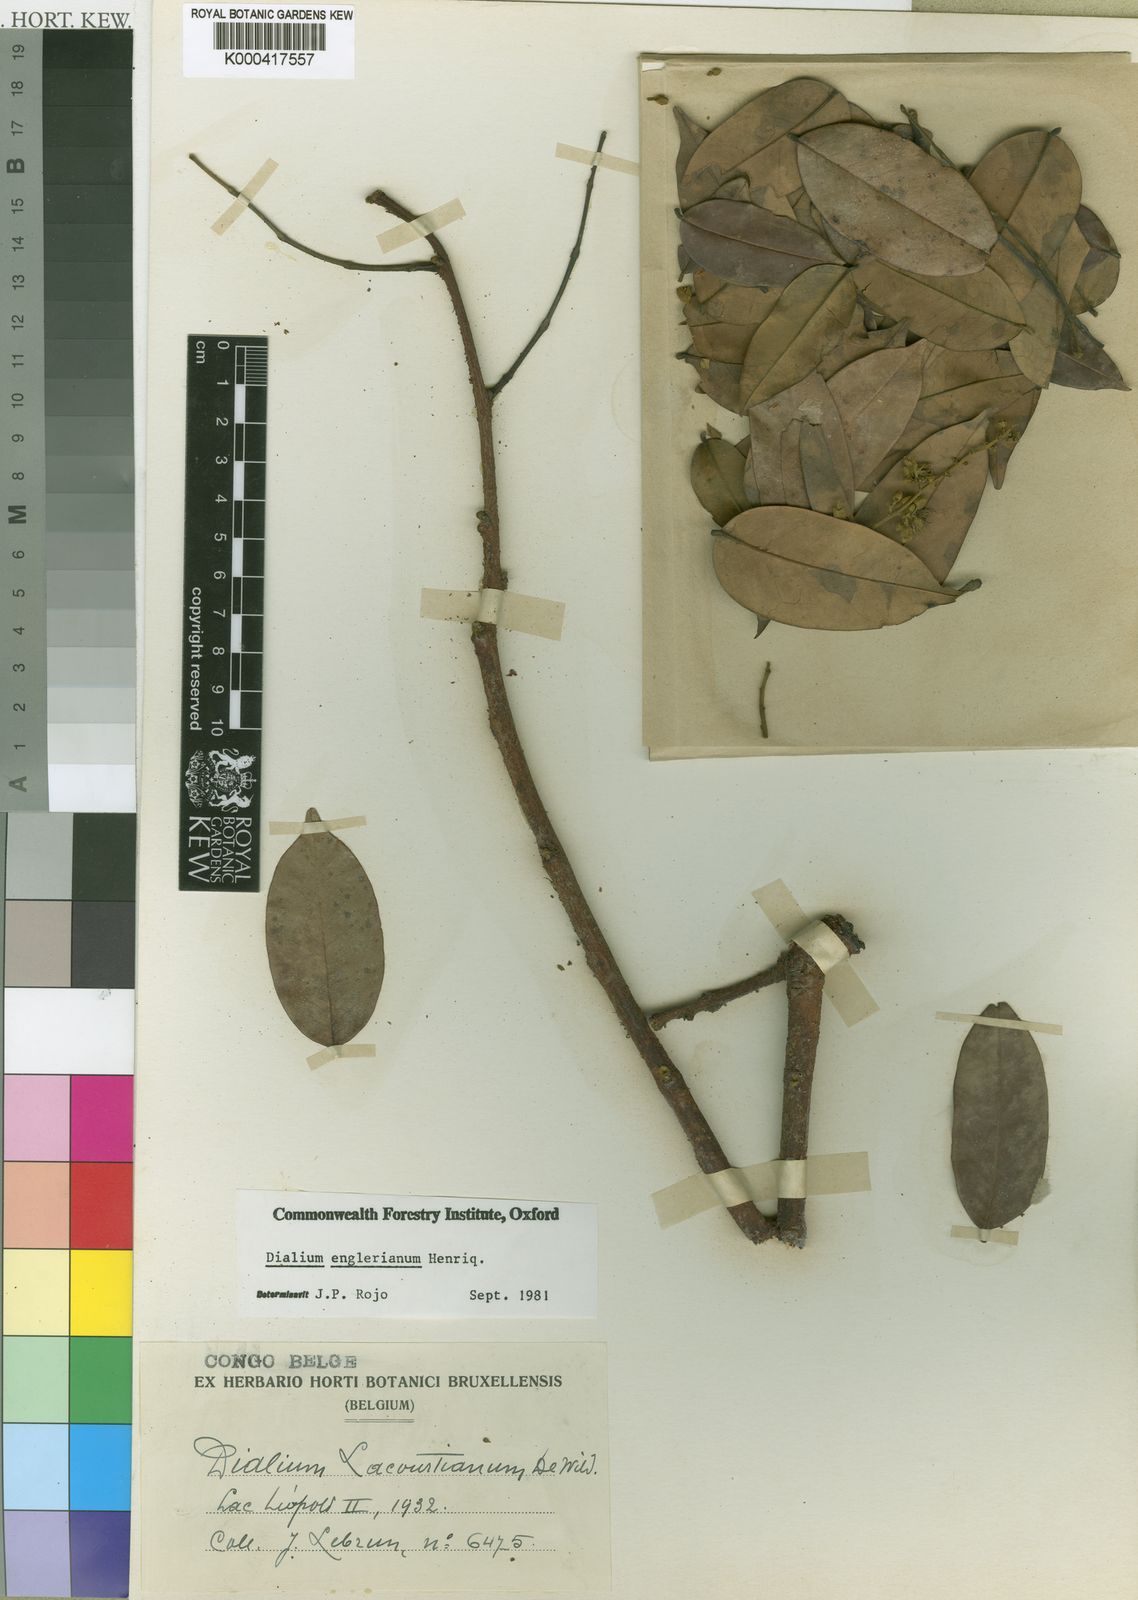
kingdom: Plantae
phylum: Tracheophyta
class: Magnoliopsida
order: Fabales
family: Fabaceae
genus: Dialium
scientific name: Dialium englerianum
